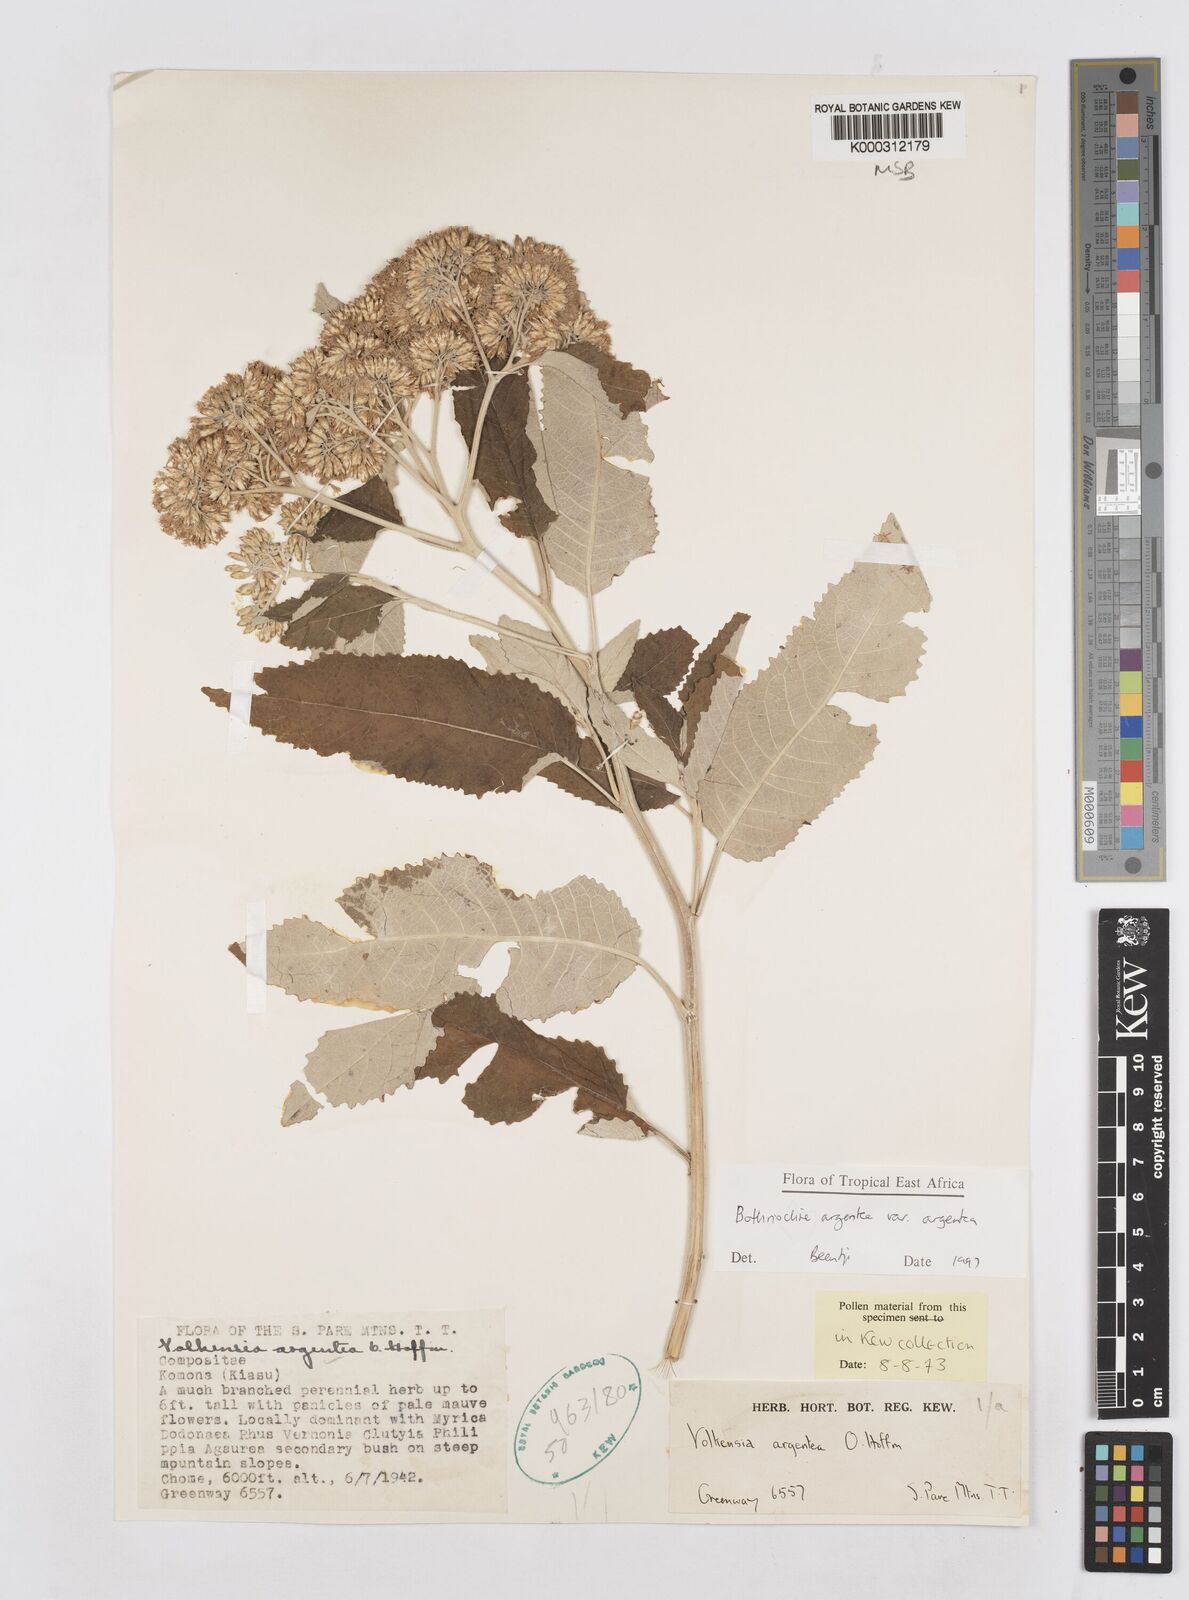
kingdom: Plantae
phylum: Tracheophyta
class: Magnoliopsida
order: Asterales
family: Asteraceae
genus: Bothriocline
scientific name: Bothriocline argentea
